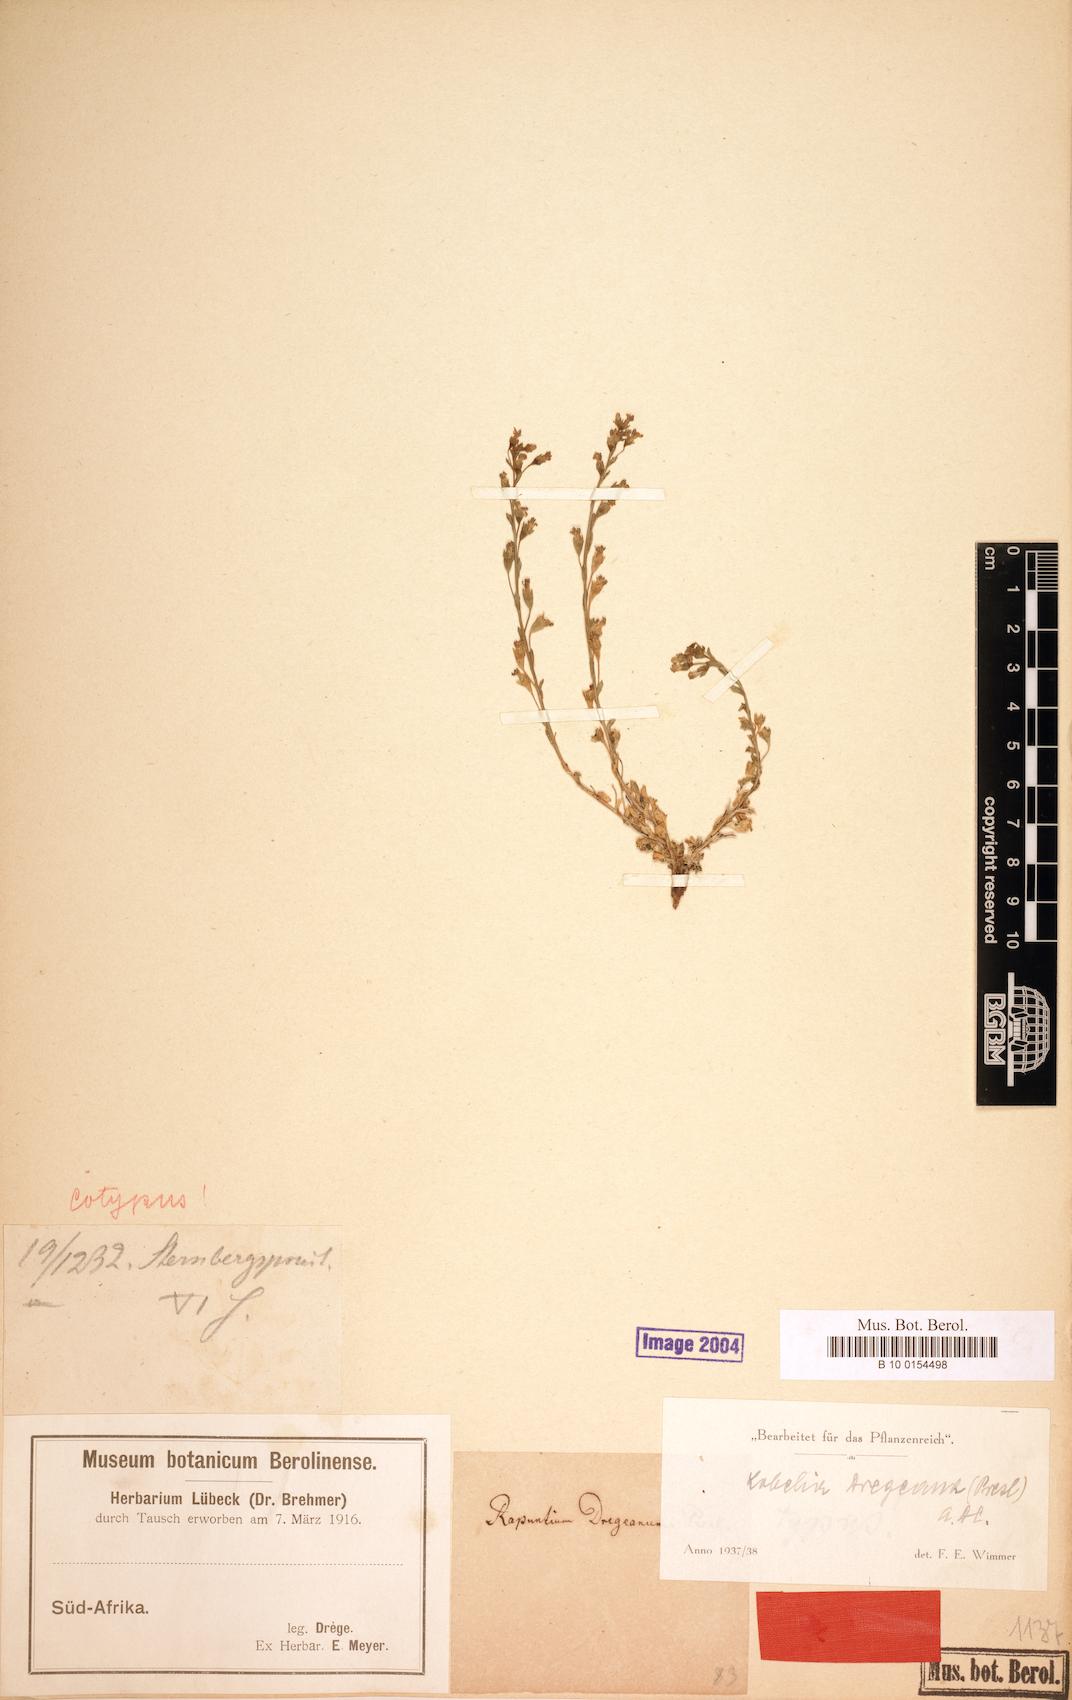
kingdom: Plantae
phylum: Tracheophyta
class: Magnoliopsida
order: Asterales
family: Campanulaceae
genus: Lobelia
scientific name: Lobelia dregeana
